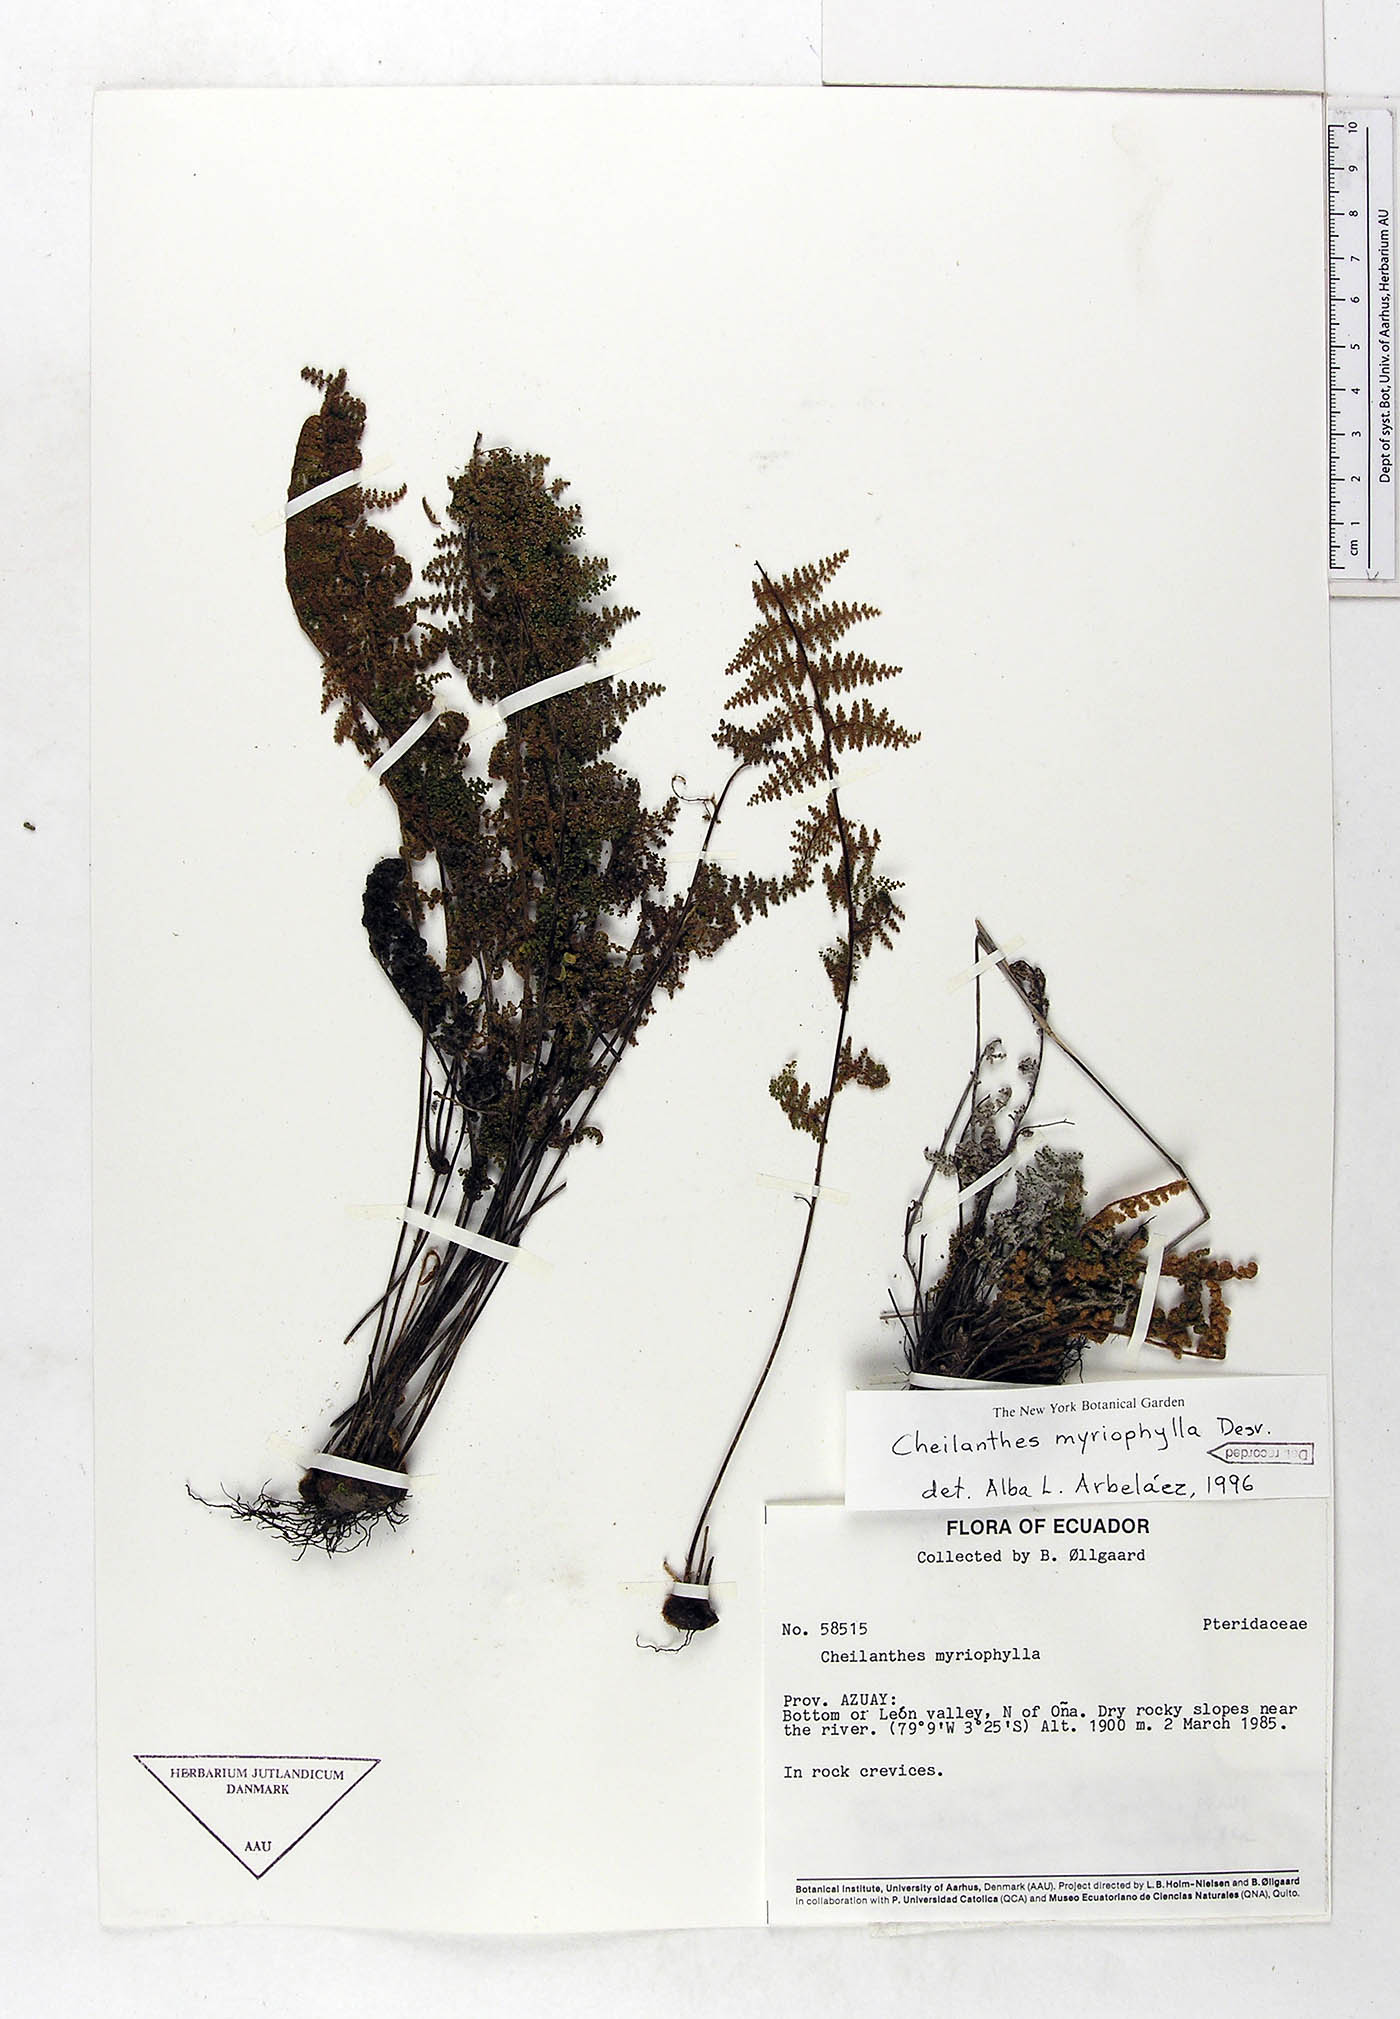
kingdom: Plantae
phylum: Tracheophyta
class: Polypodiopsida
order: Polypodiales
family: Pteridaceae
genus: Myriopteris
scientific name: Myriopteris myriophylla
